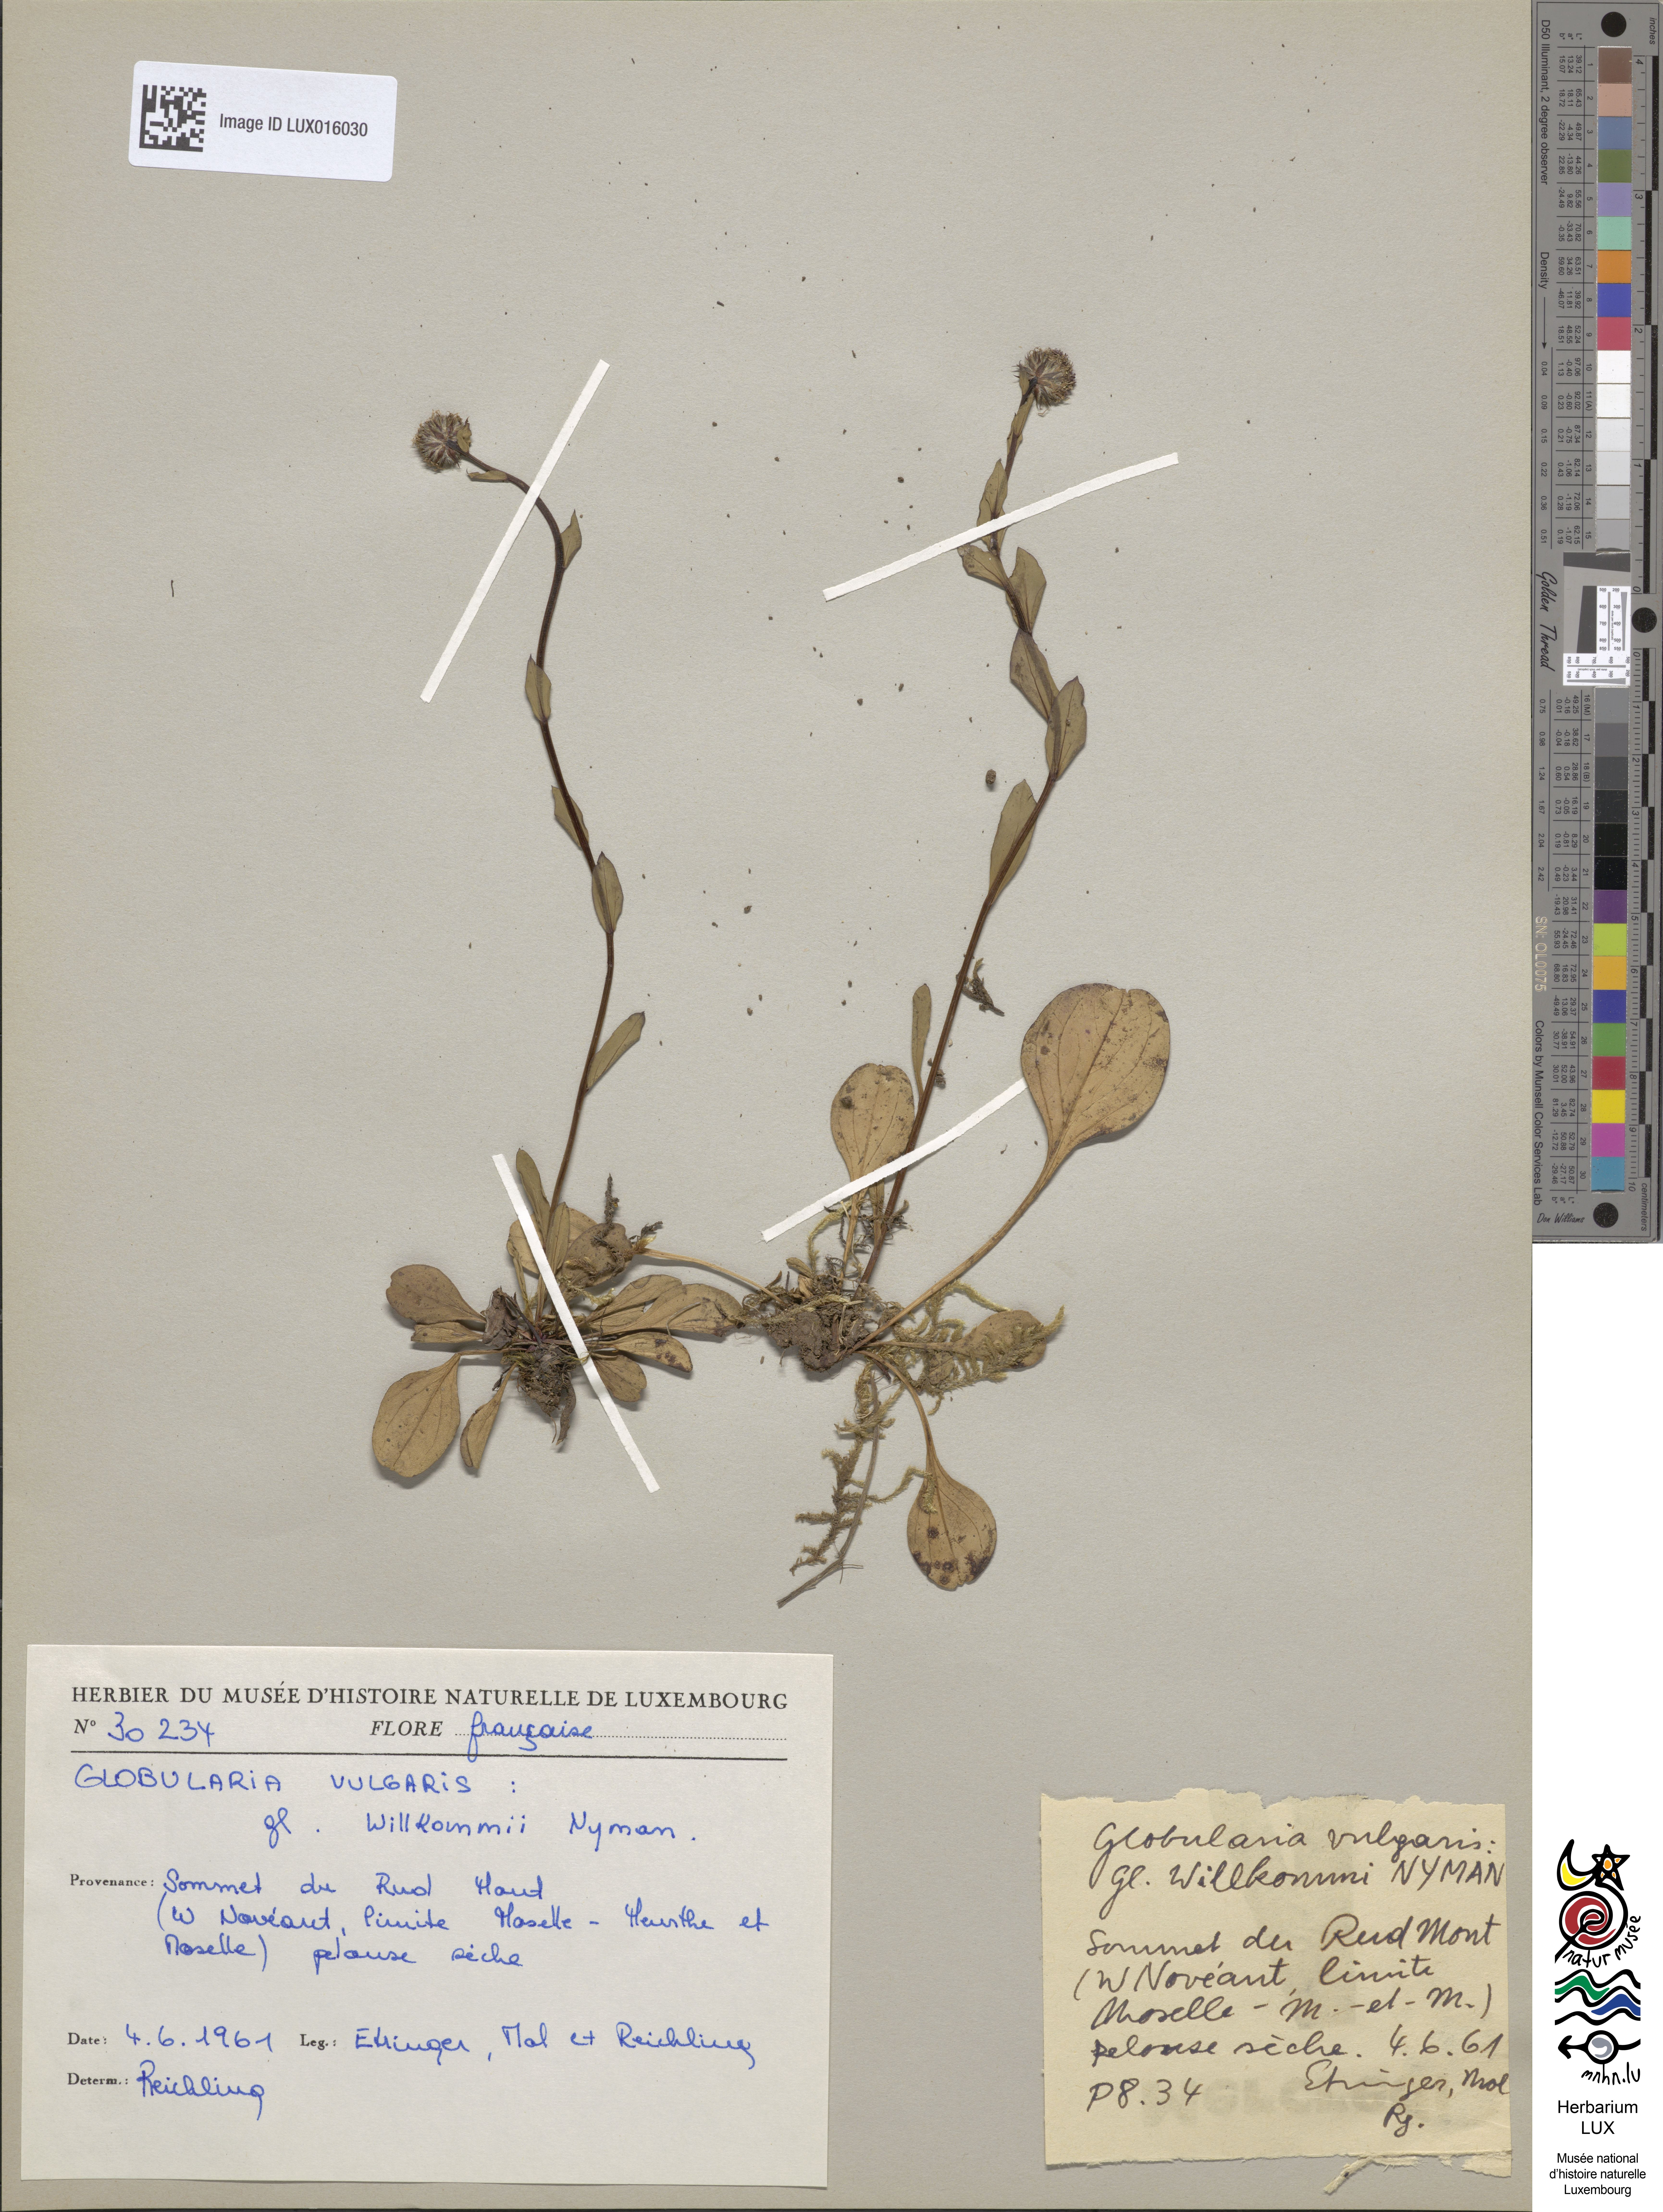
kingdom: Plantae
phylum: Tracheophyta
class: Magnoliopsida
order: Lamiales
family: Plantaginaceae
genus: Globularia
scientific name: Globularia vulgaris
